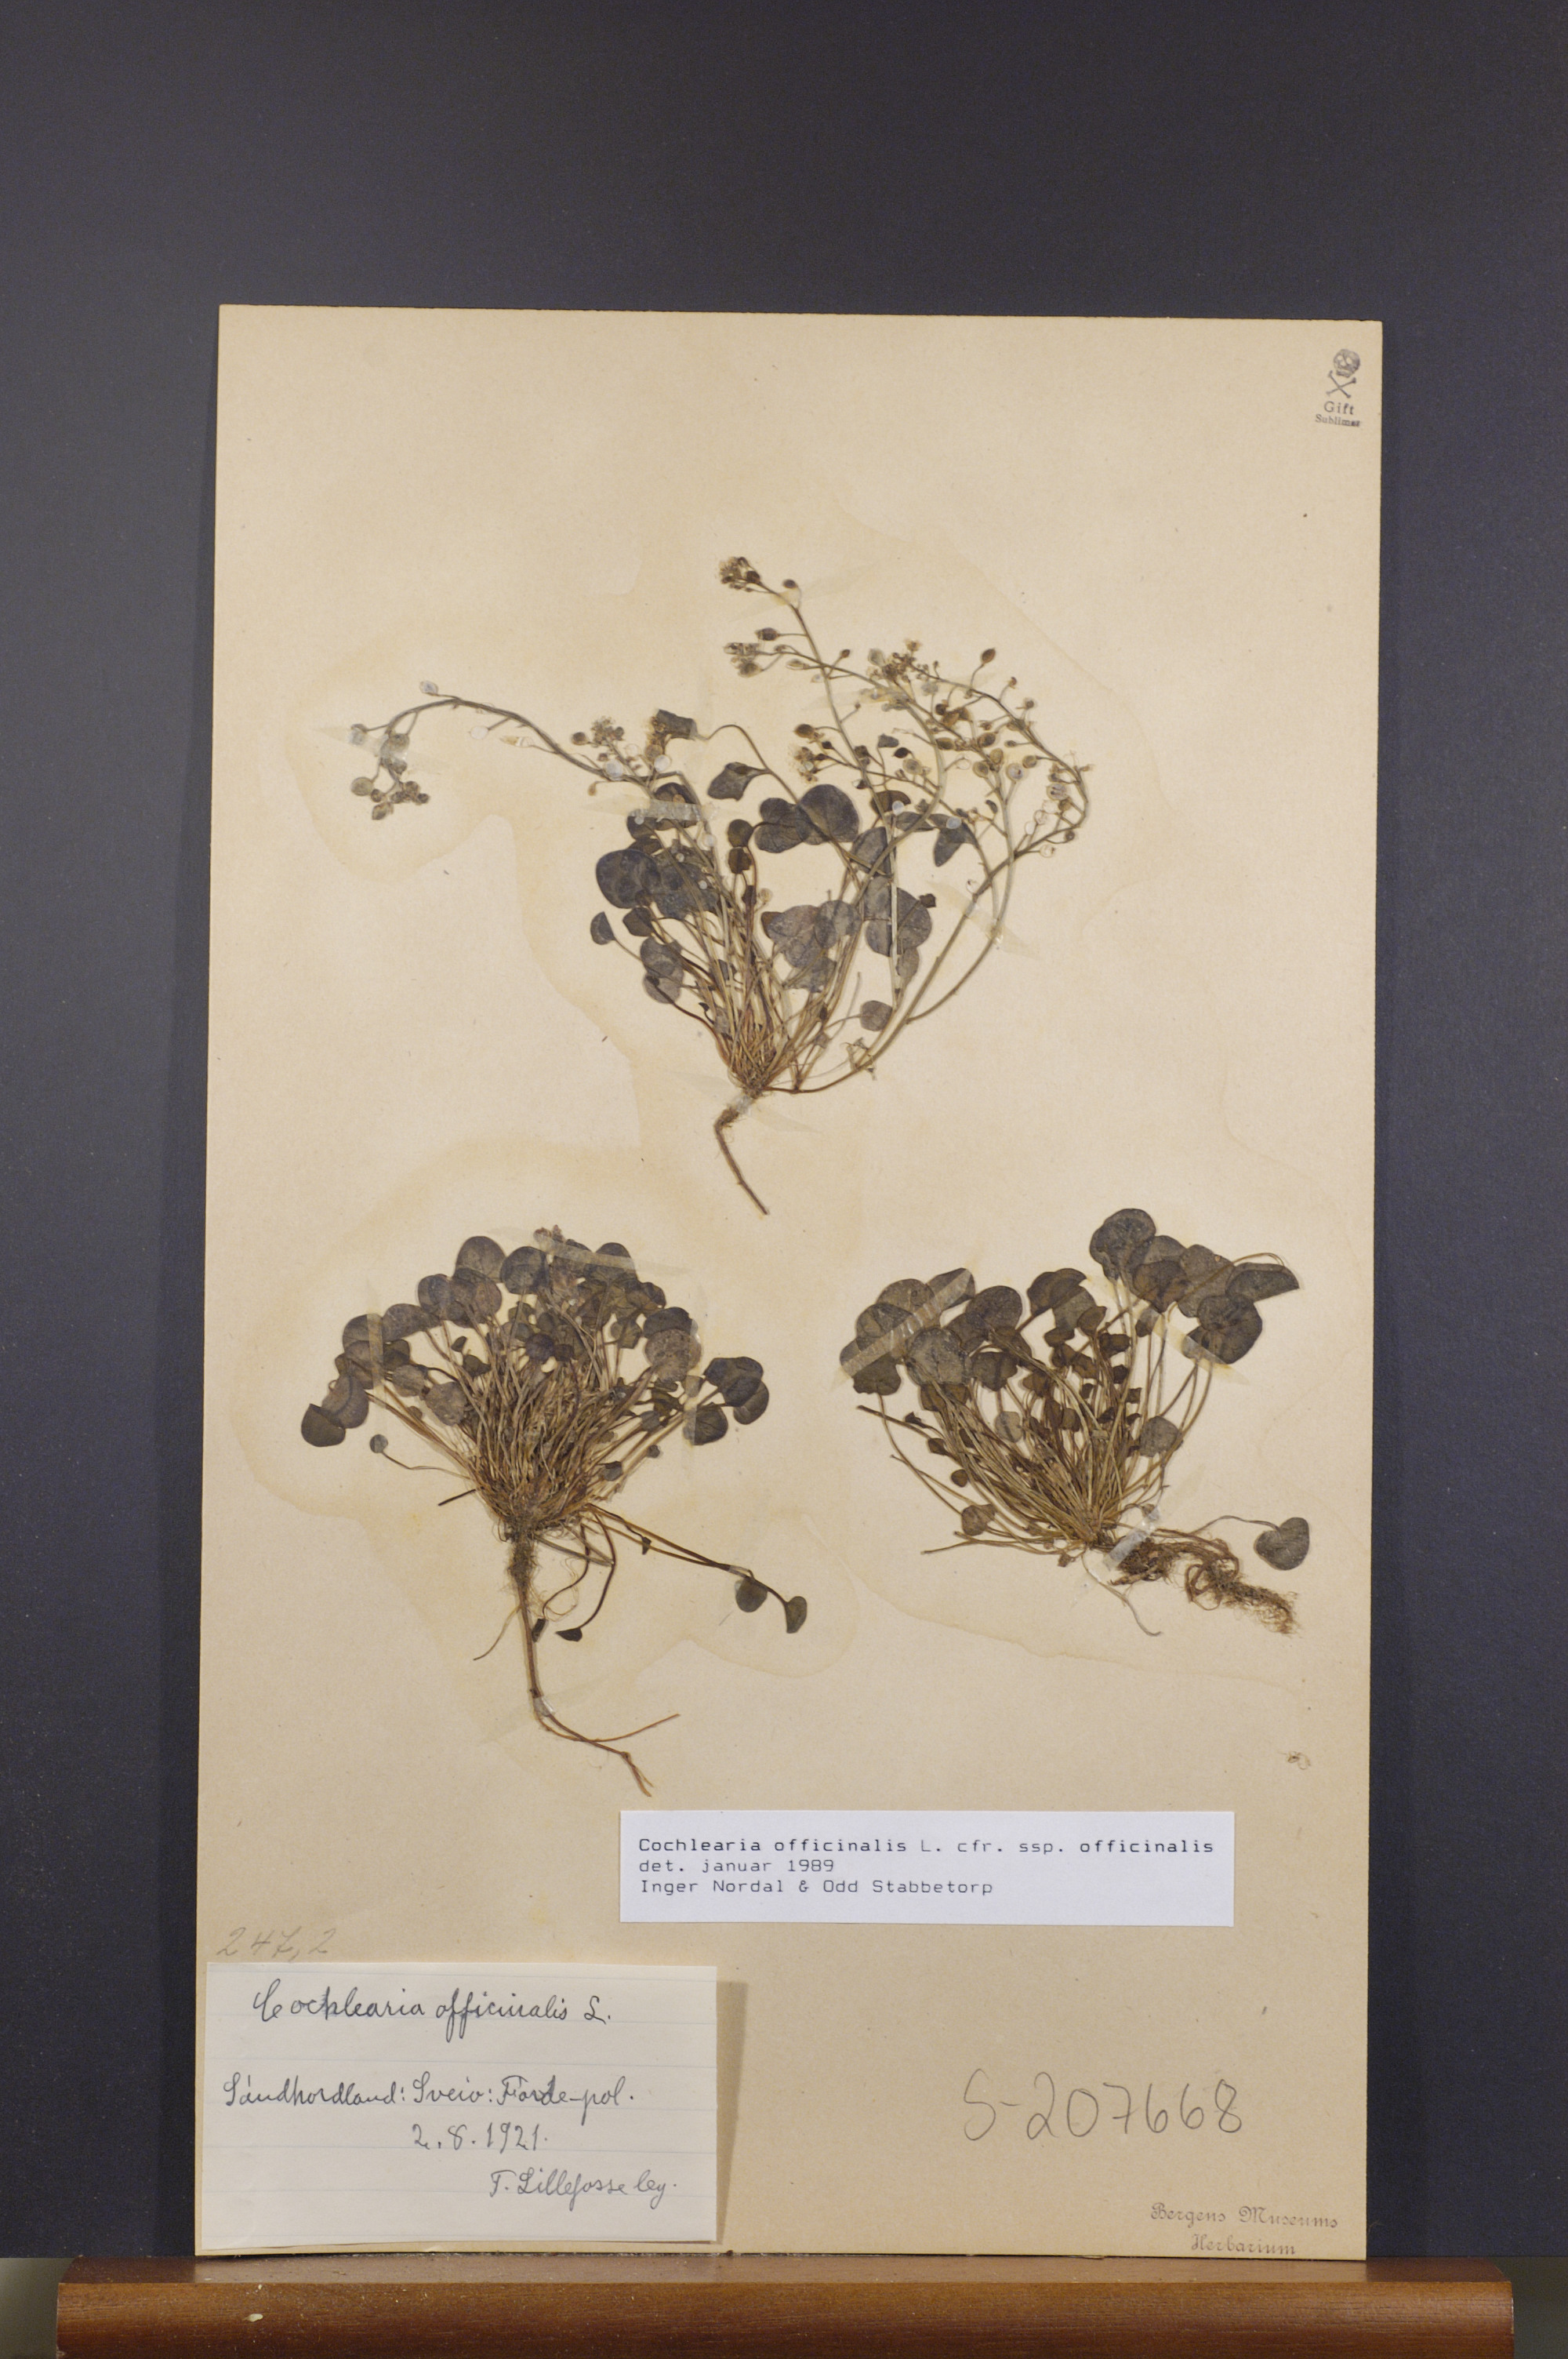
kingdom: Plantae
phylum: Tracheophyta
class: Magnoliopsida
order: Brassicales
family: Brassicaceae
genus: Cochlearia
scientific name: Cochlearia officinalis
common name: Scurvy-grass
